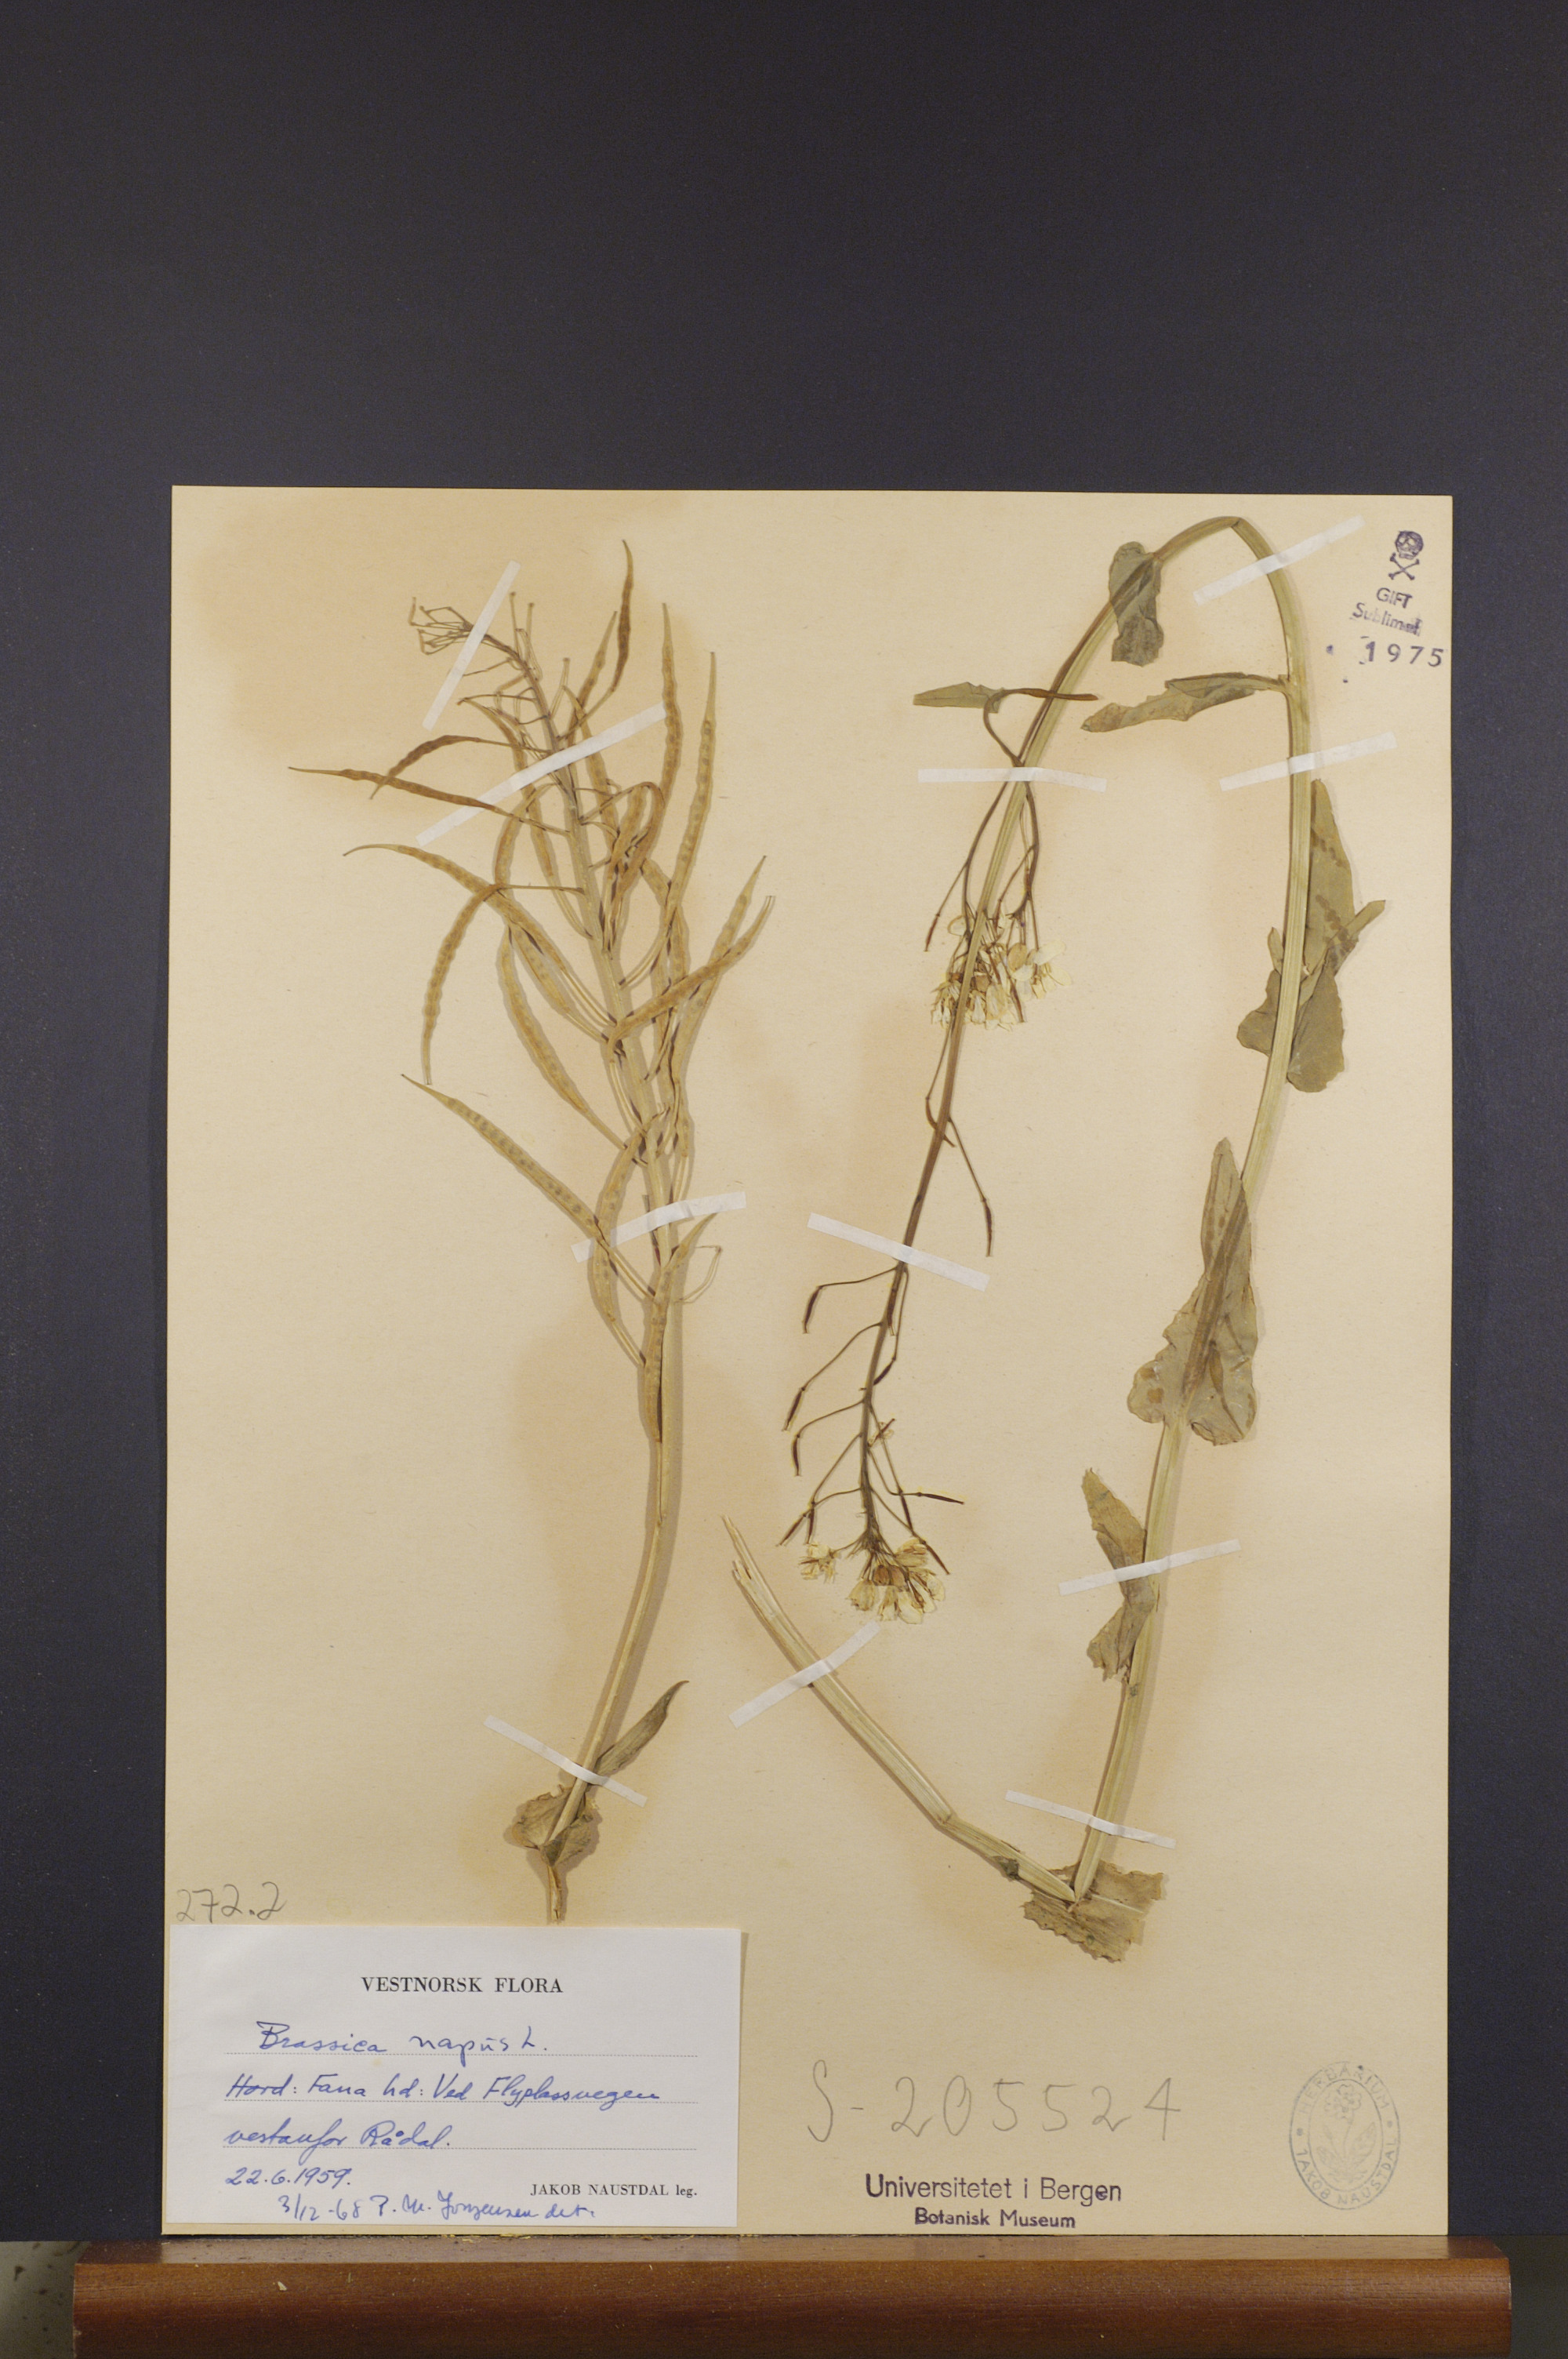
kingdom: Plantae
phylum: Tracheophyta
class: Magnoliopsida
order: Brassicales
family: Brassicaceae
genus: Brassica
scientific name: Brassica napus
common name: Rape
